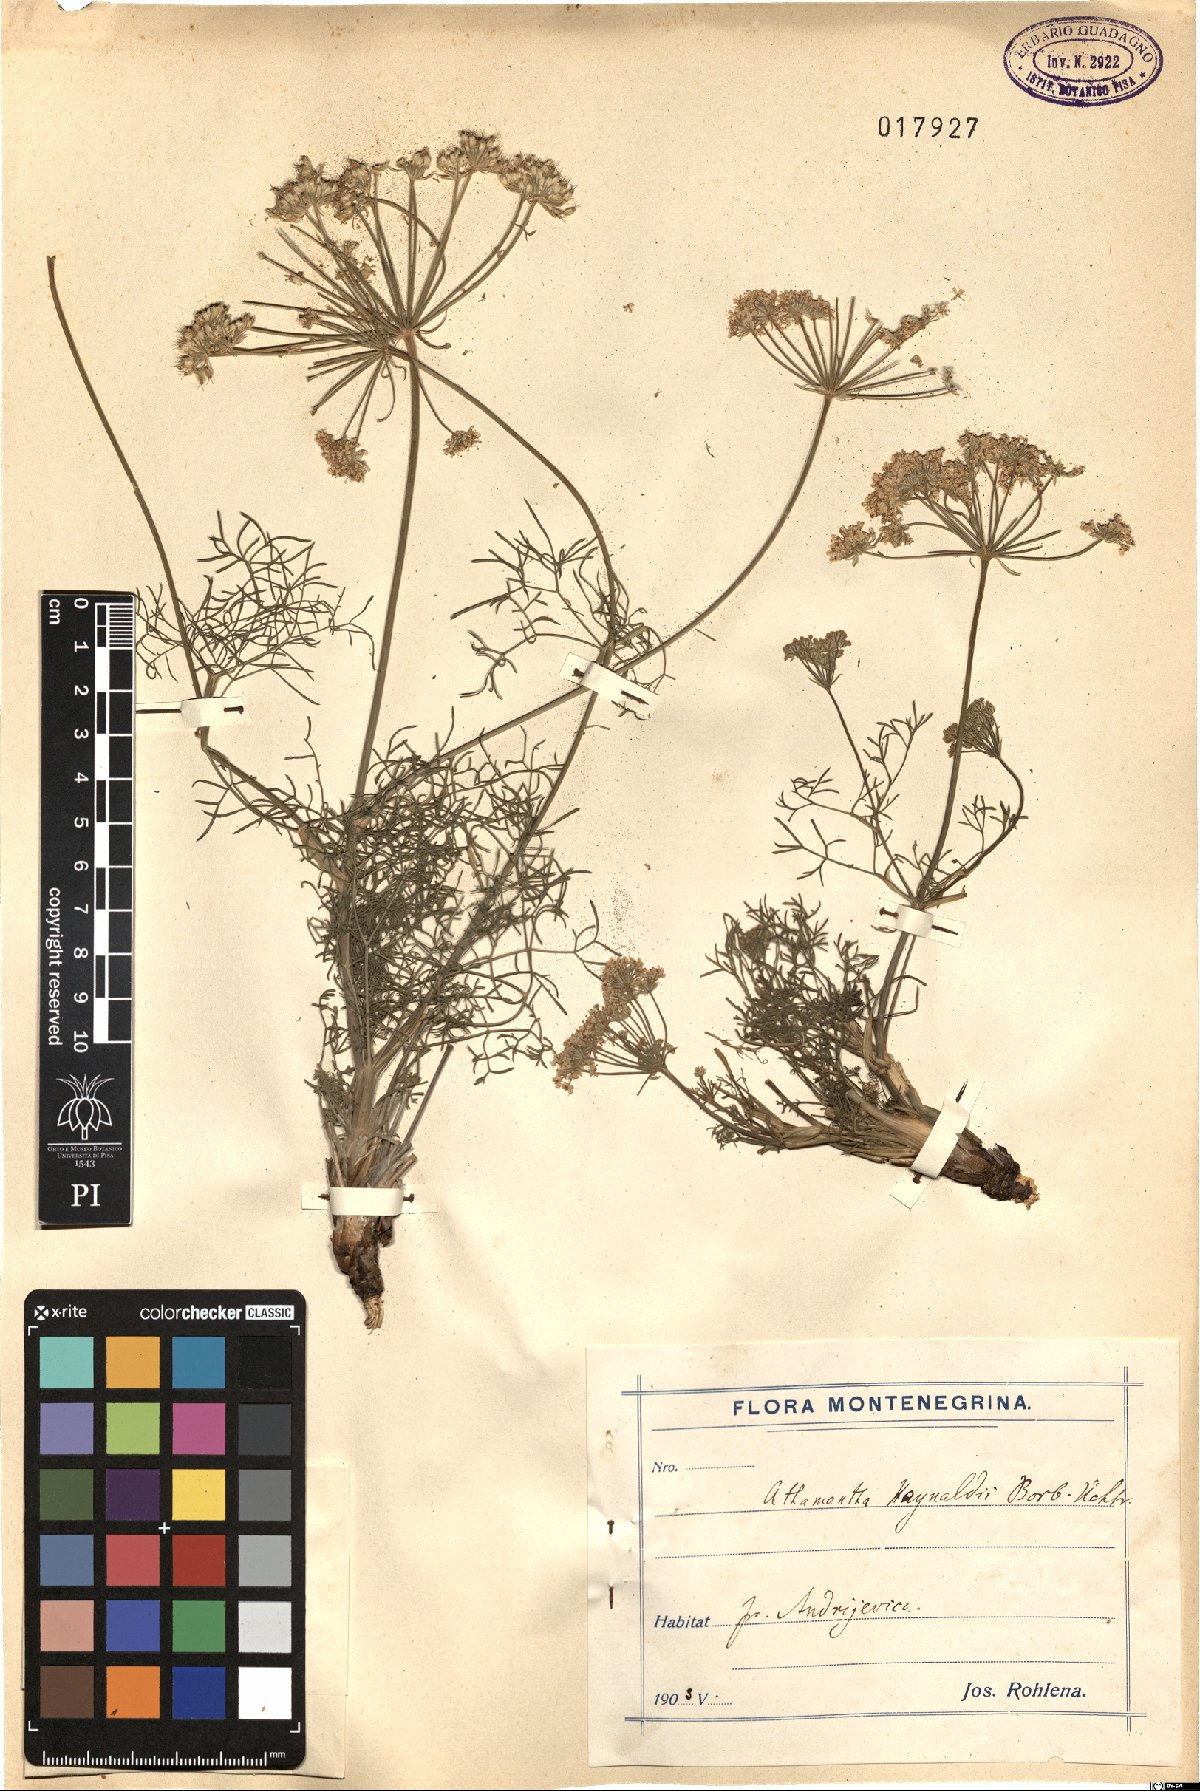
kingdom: Plantae
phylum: Tracheophyta
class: Magnoliopsida
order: Apiales
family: Apiaceae
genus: Athamanta
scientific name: Athamanta turbith
